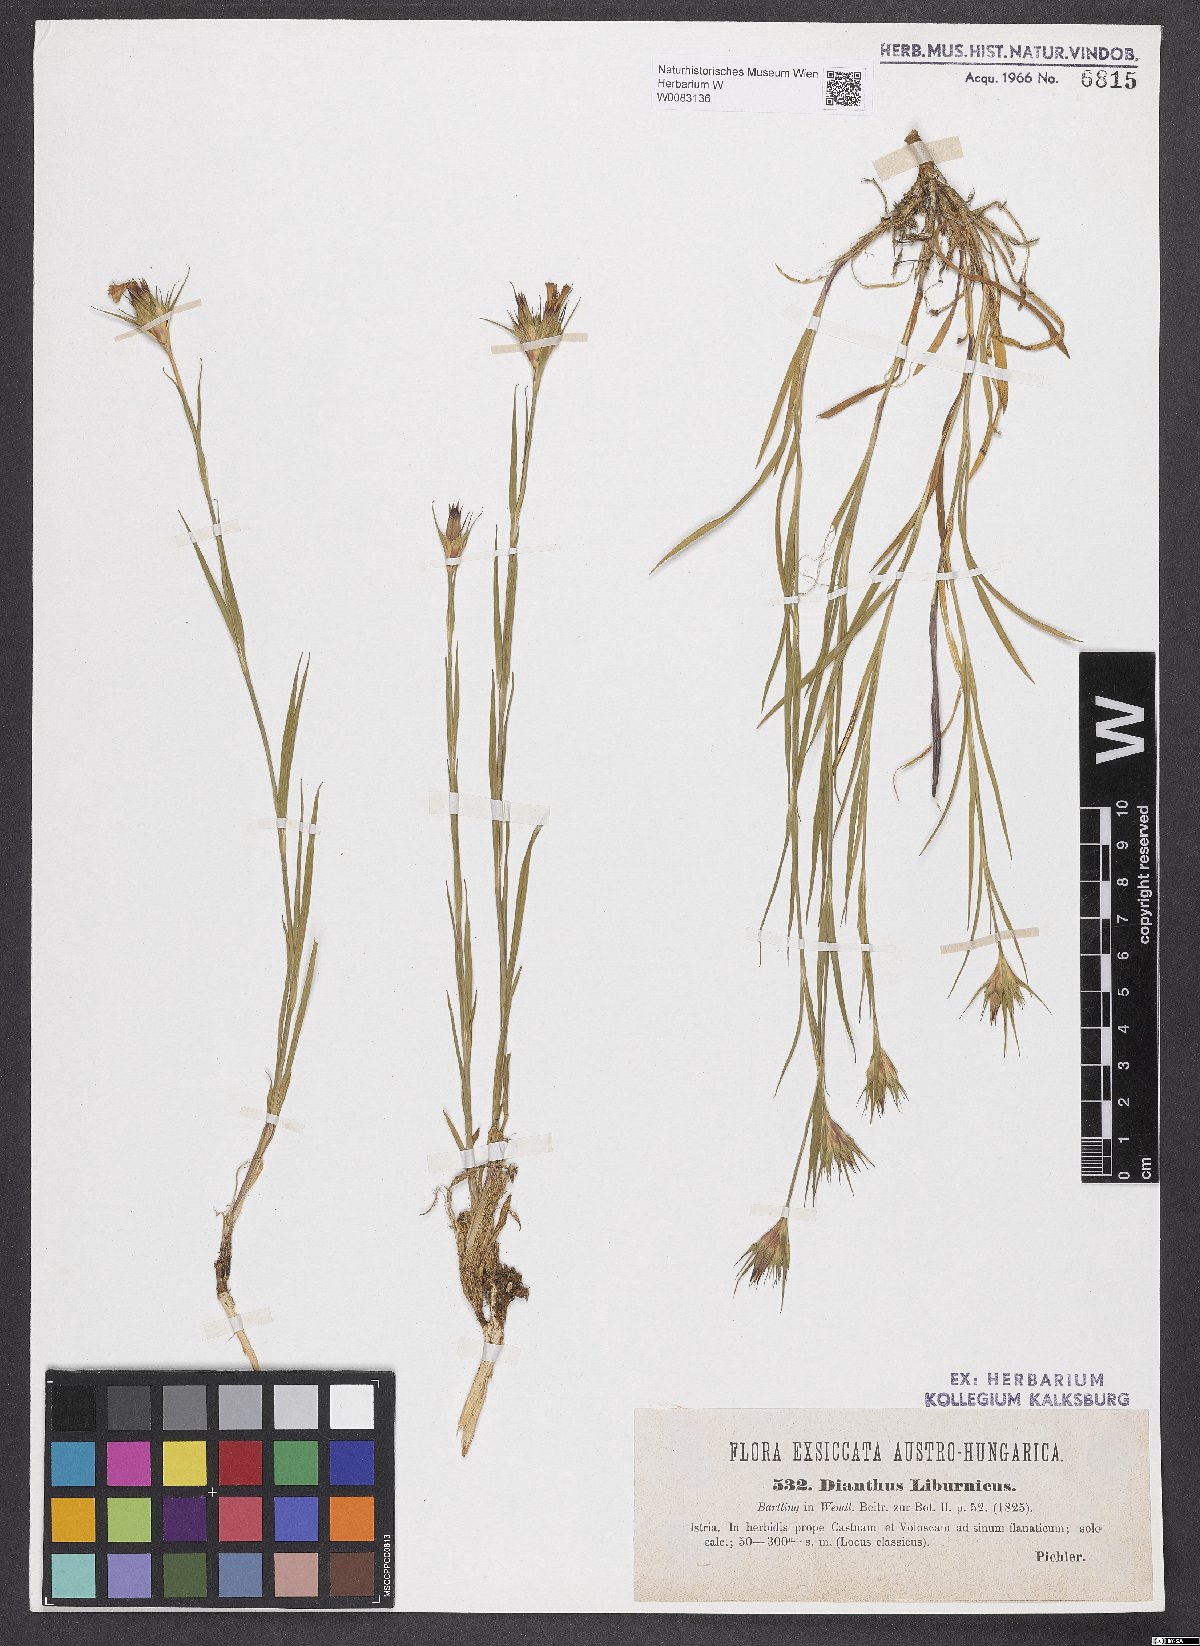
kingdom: Plantae
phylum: Tracheophyta
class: Magnoliopsida
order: Caryophyllales
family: Caryophyllaceae
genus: Dianthus
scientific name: Dianthus balbisii
